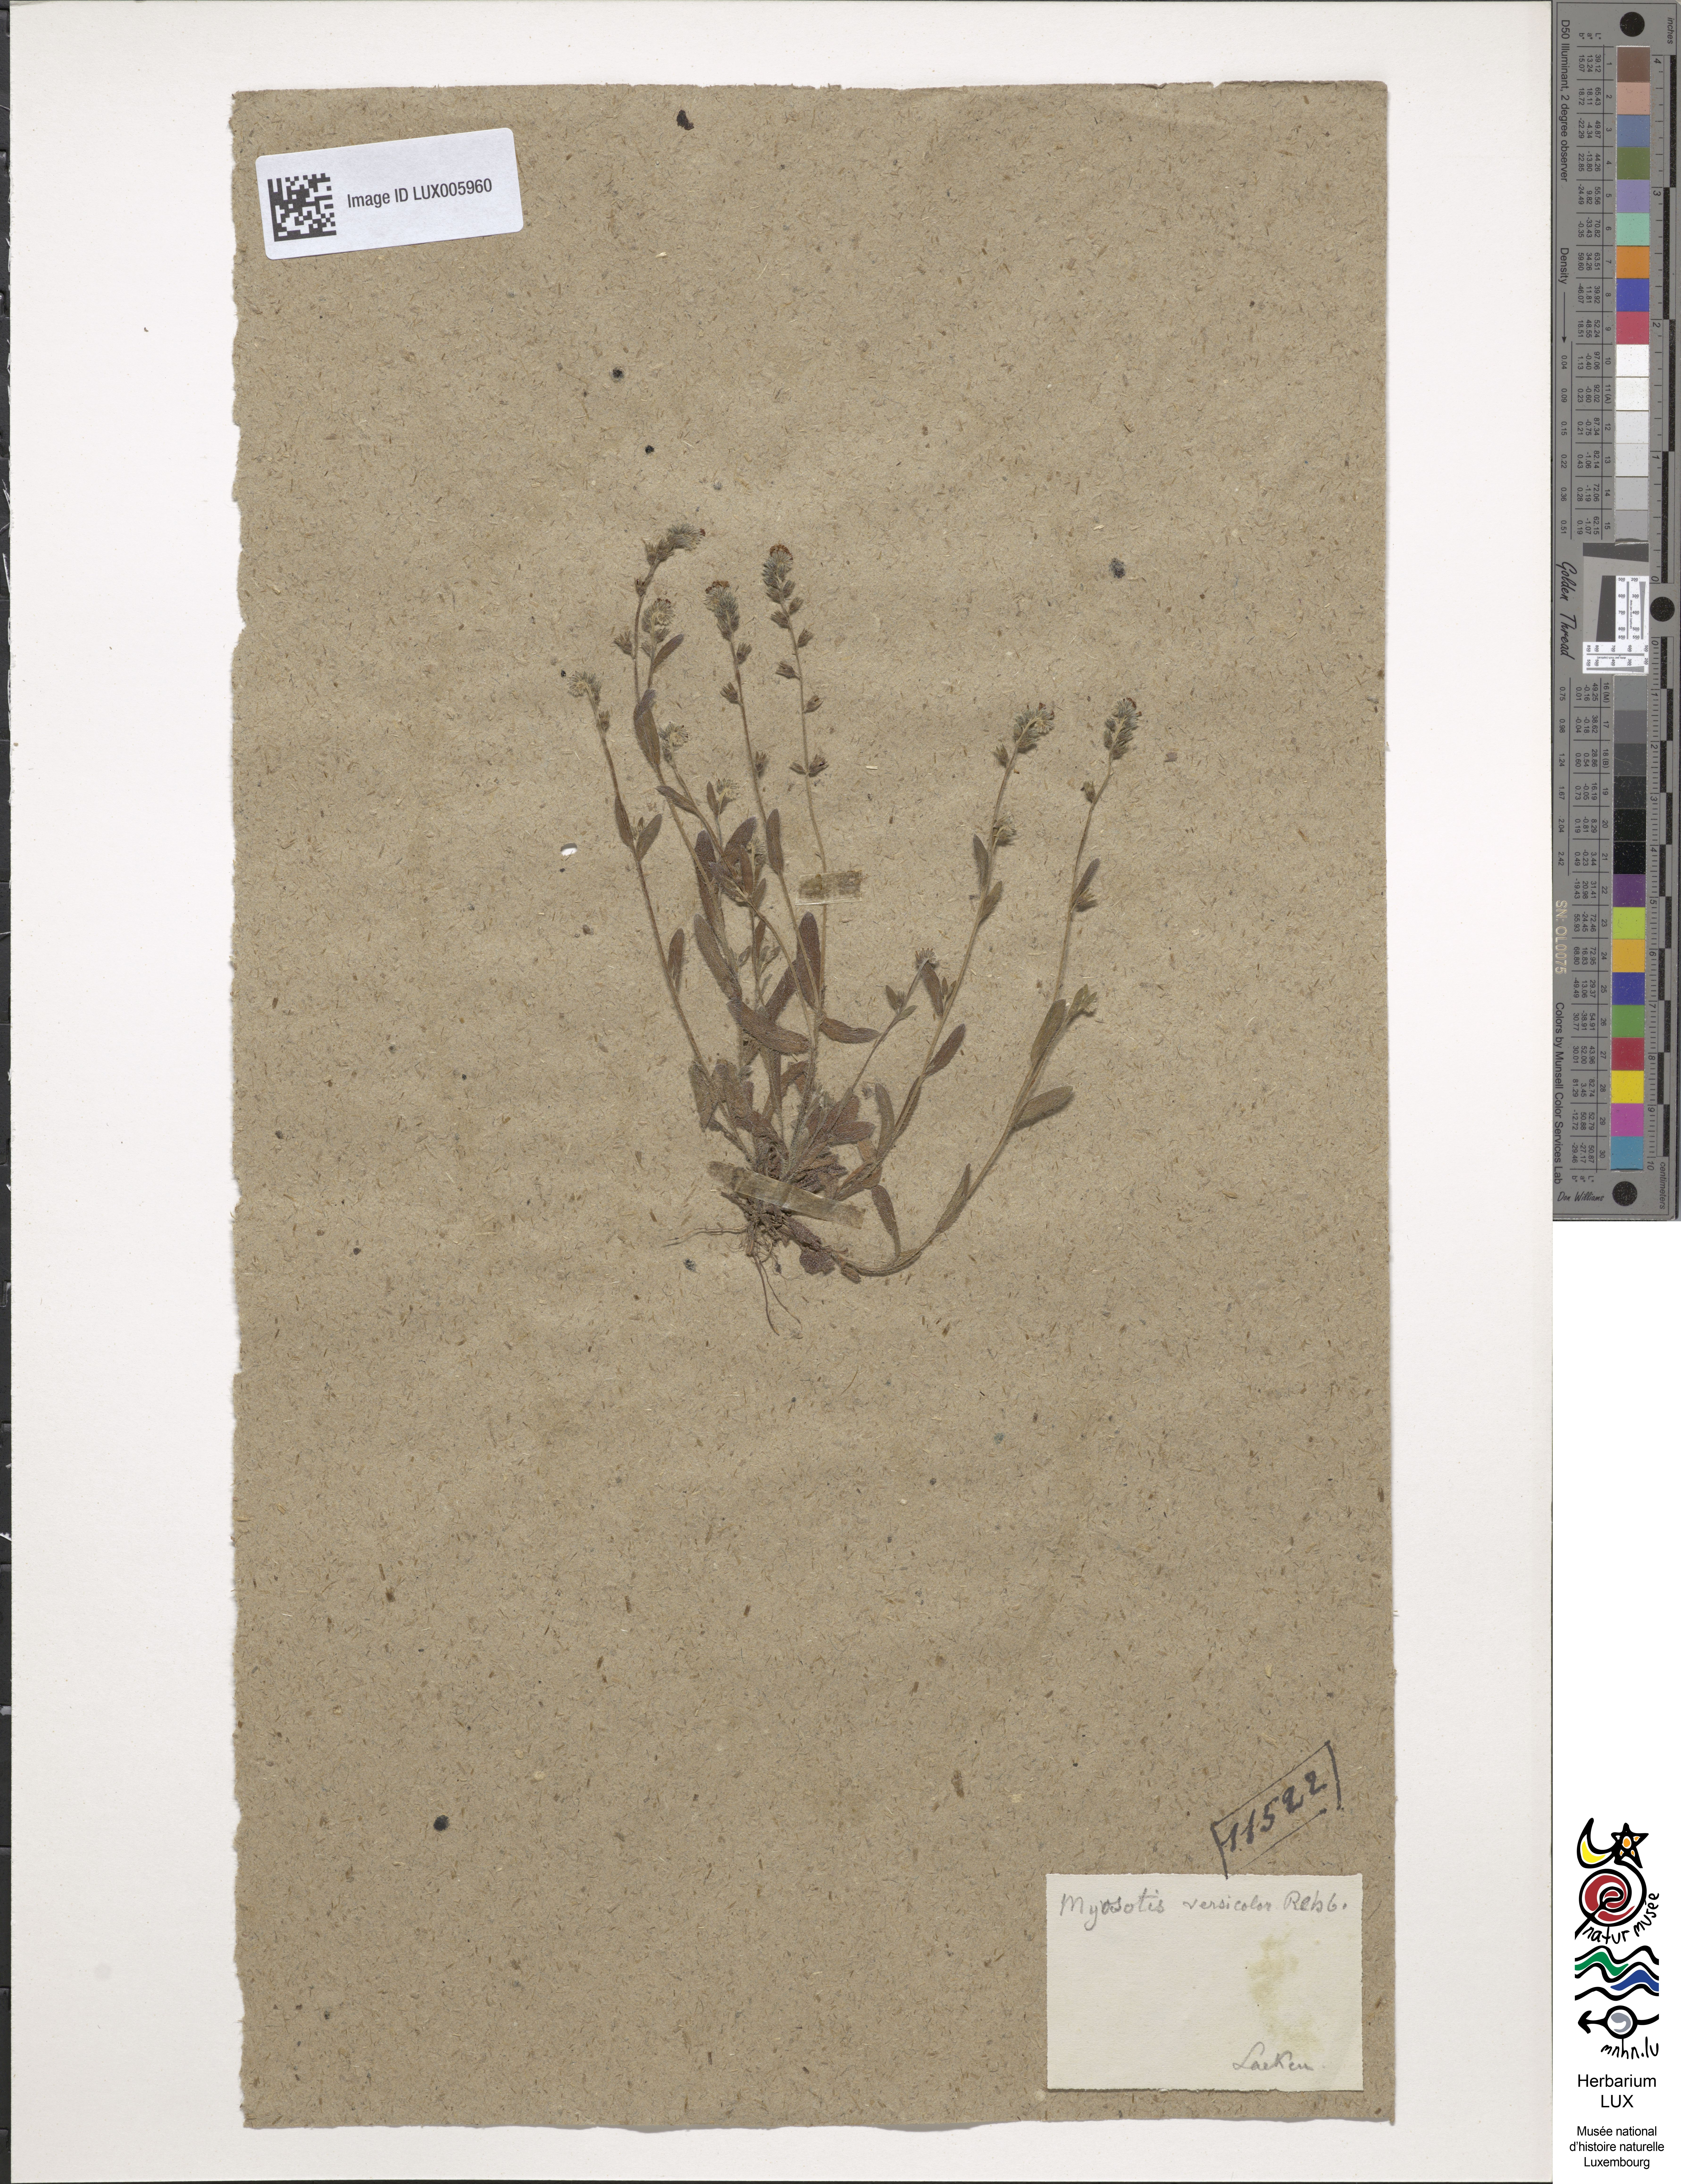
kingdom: Plantae
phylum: Tracheophyta
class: Magnoliopsida
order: Boraginales
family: Boraginaceae
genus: Myosotis
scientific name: Myosotis discolor
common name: Changing forget-me-not
